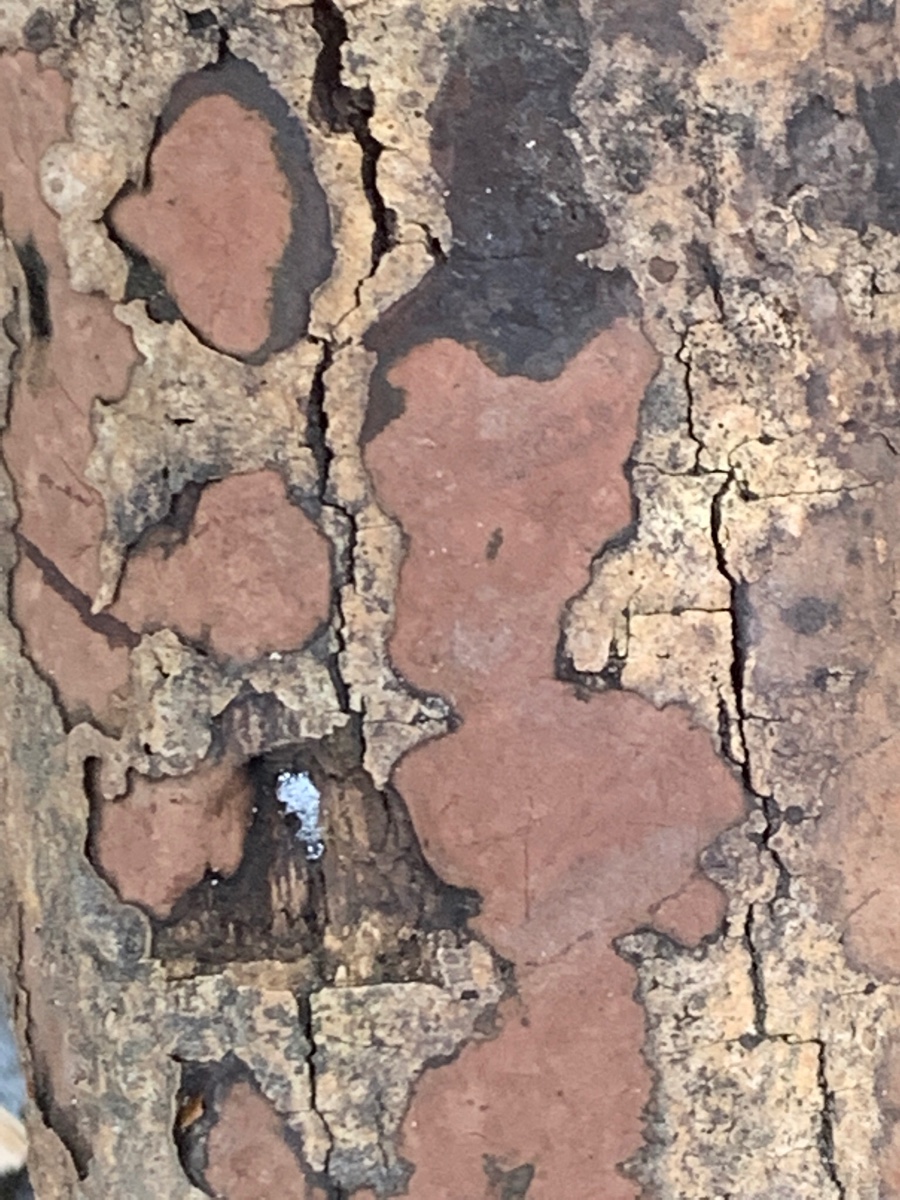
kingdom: Fungi
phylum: Ascomycota
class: Sordariomycetes
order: Xylariales
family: Hypoxylaceae
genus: Hypoxylon
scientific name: Hypoxylon petriniae
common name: nedsænket kulbær
